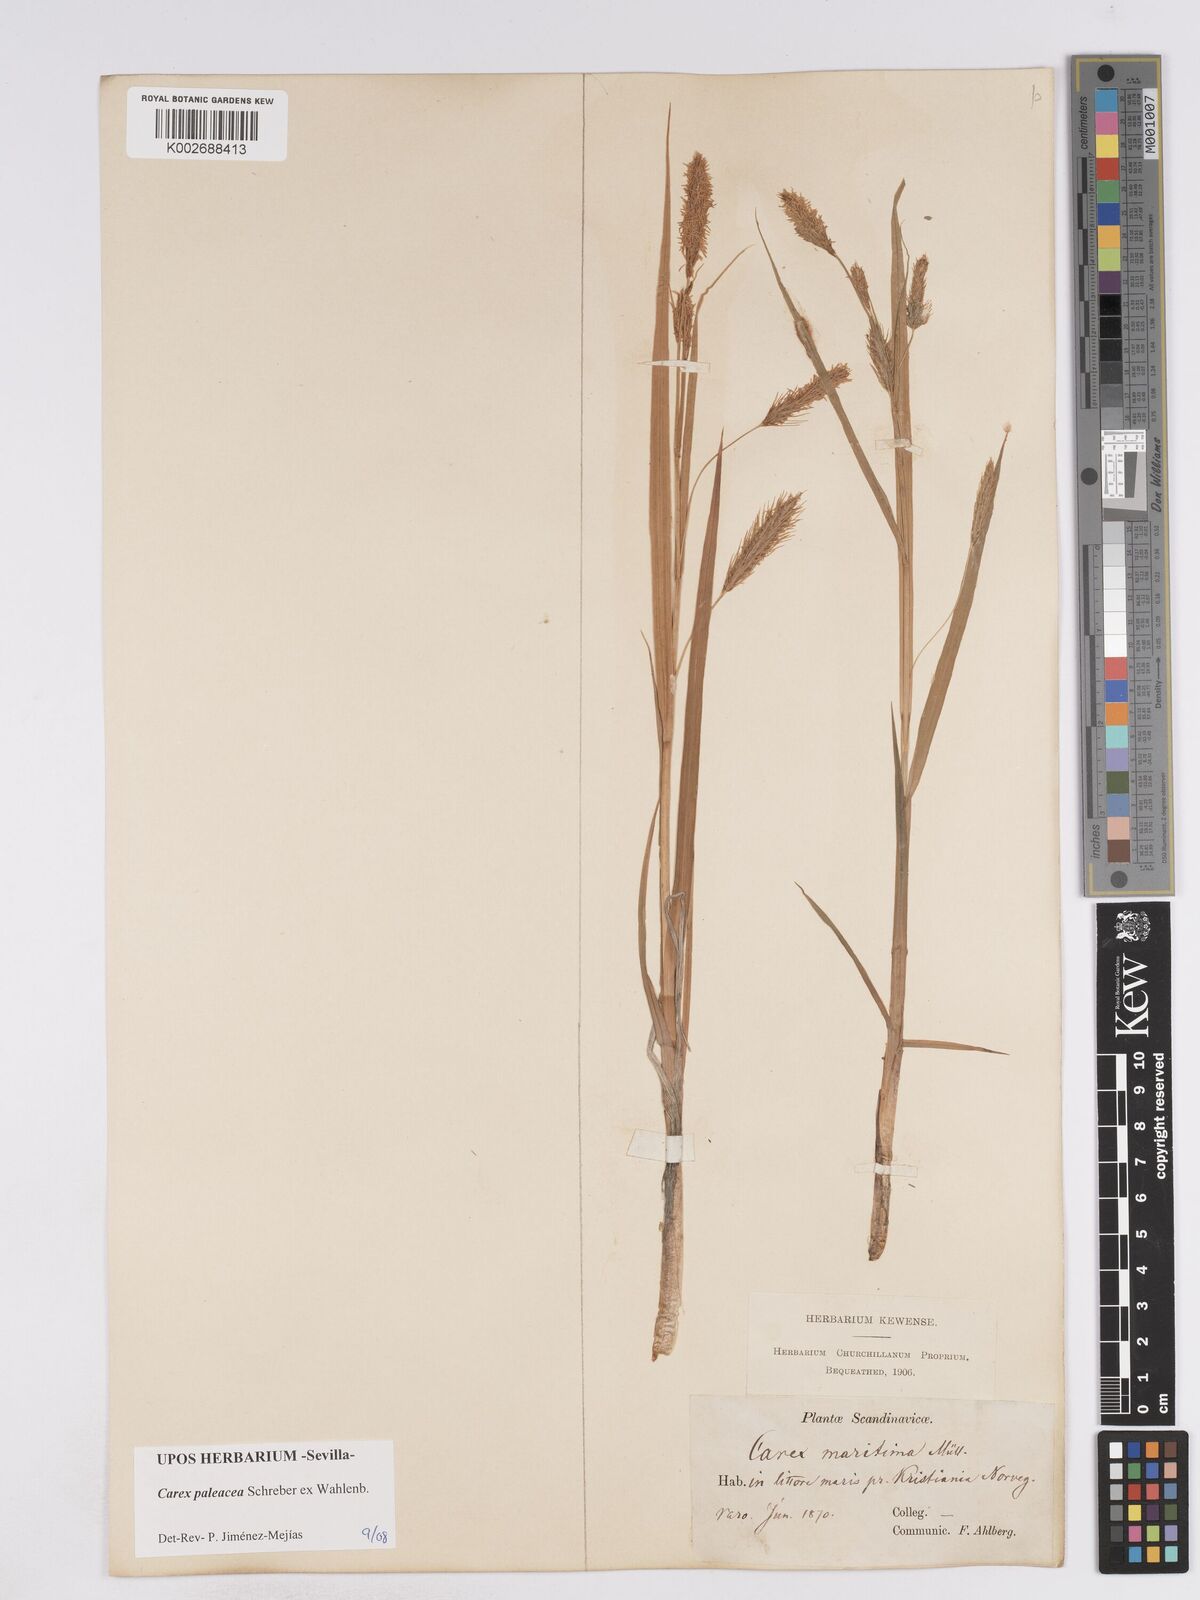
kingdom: Plantae
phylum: Tracheophyta
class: Liliopsida
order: Poales
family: Cyperaceae
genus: Carex
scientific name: Carex paleacea
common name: Chaffy sedge
